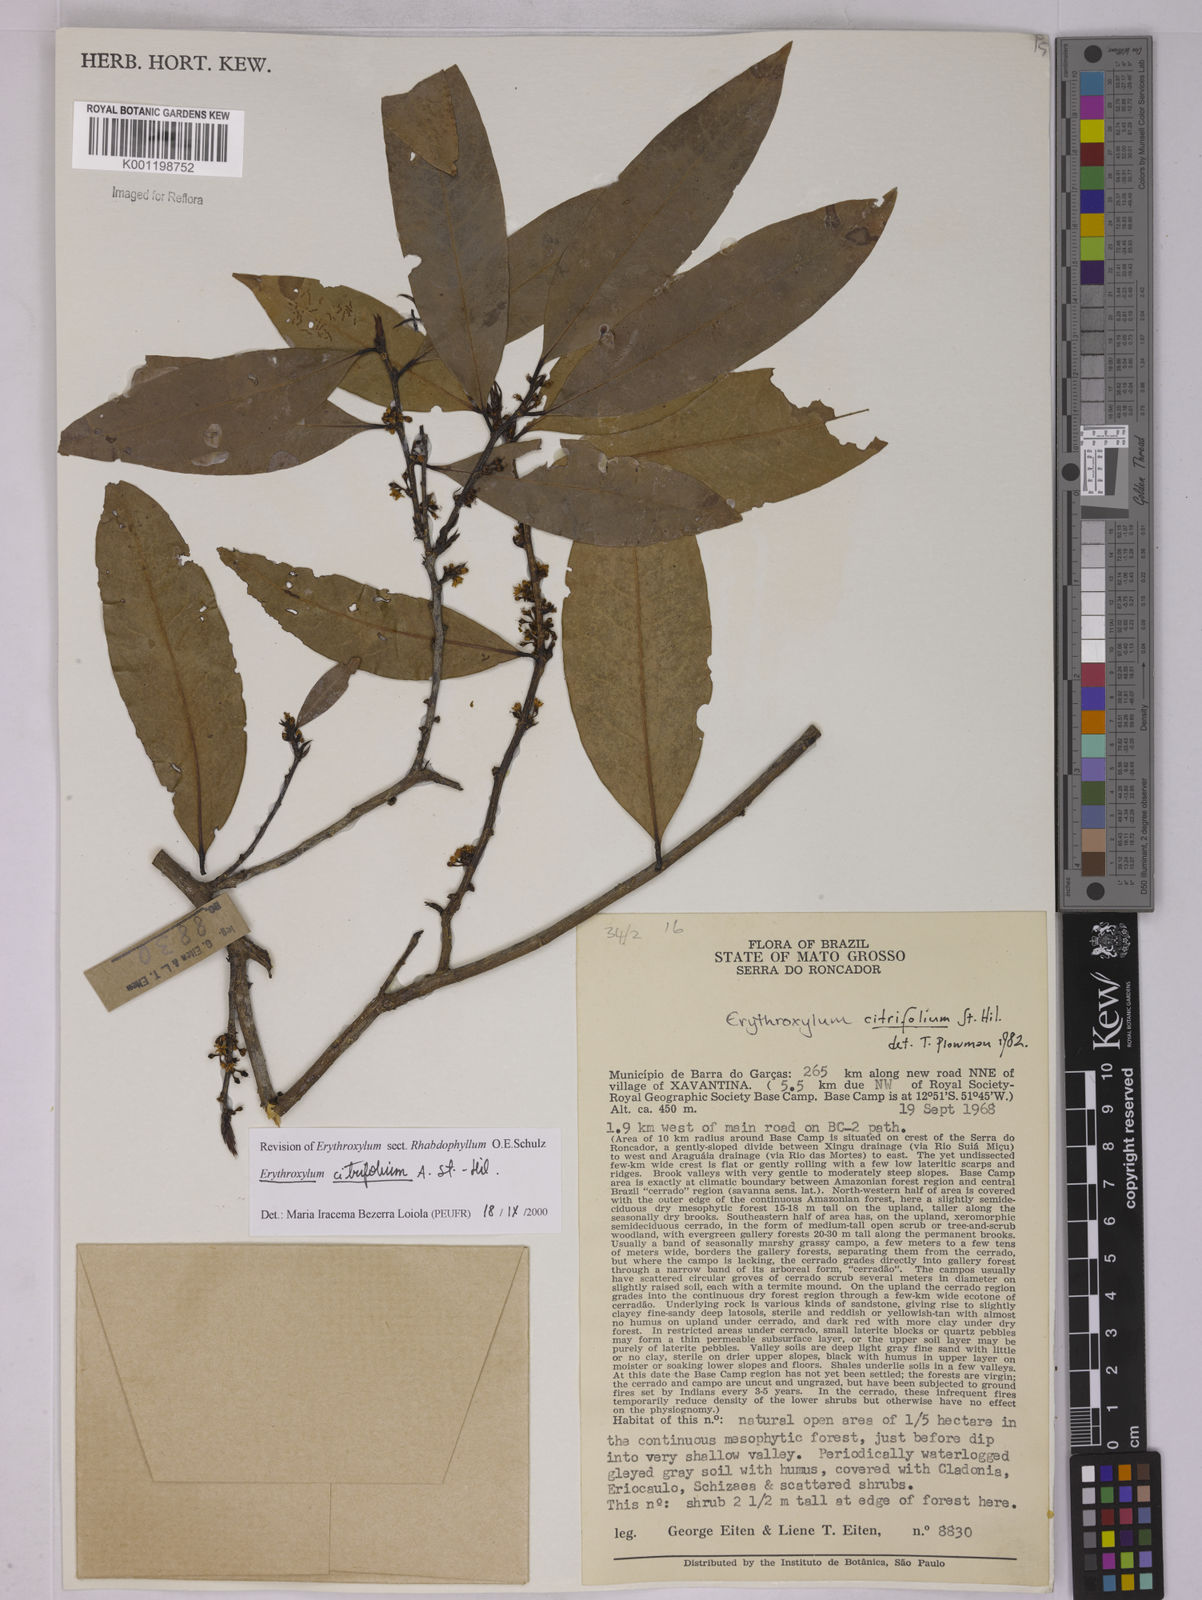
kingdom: Plantae
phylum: Tracheophyta
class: Magnoliopsida
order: Malpighiales
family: Erythroxylaceae
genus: Erythroxylum
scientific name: Erythroxylum citrifolium
